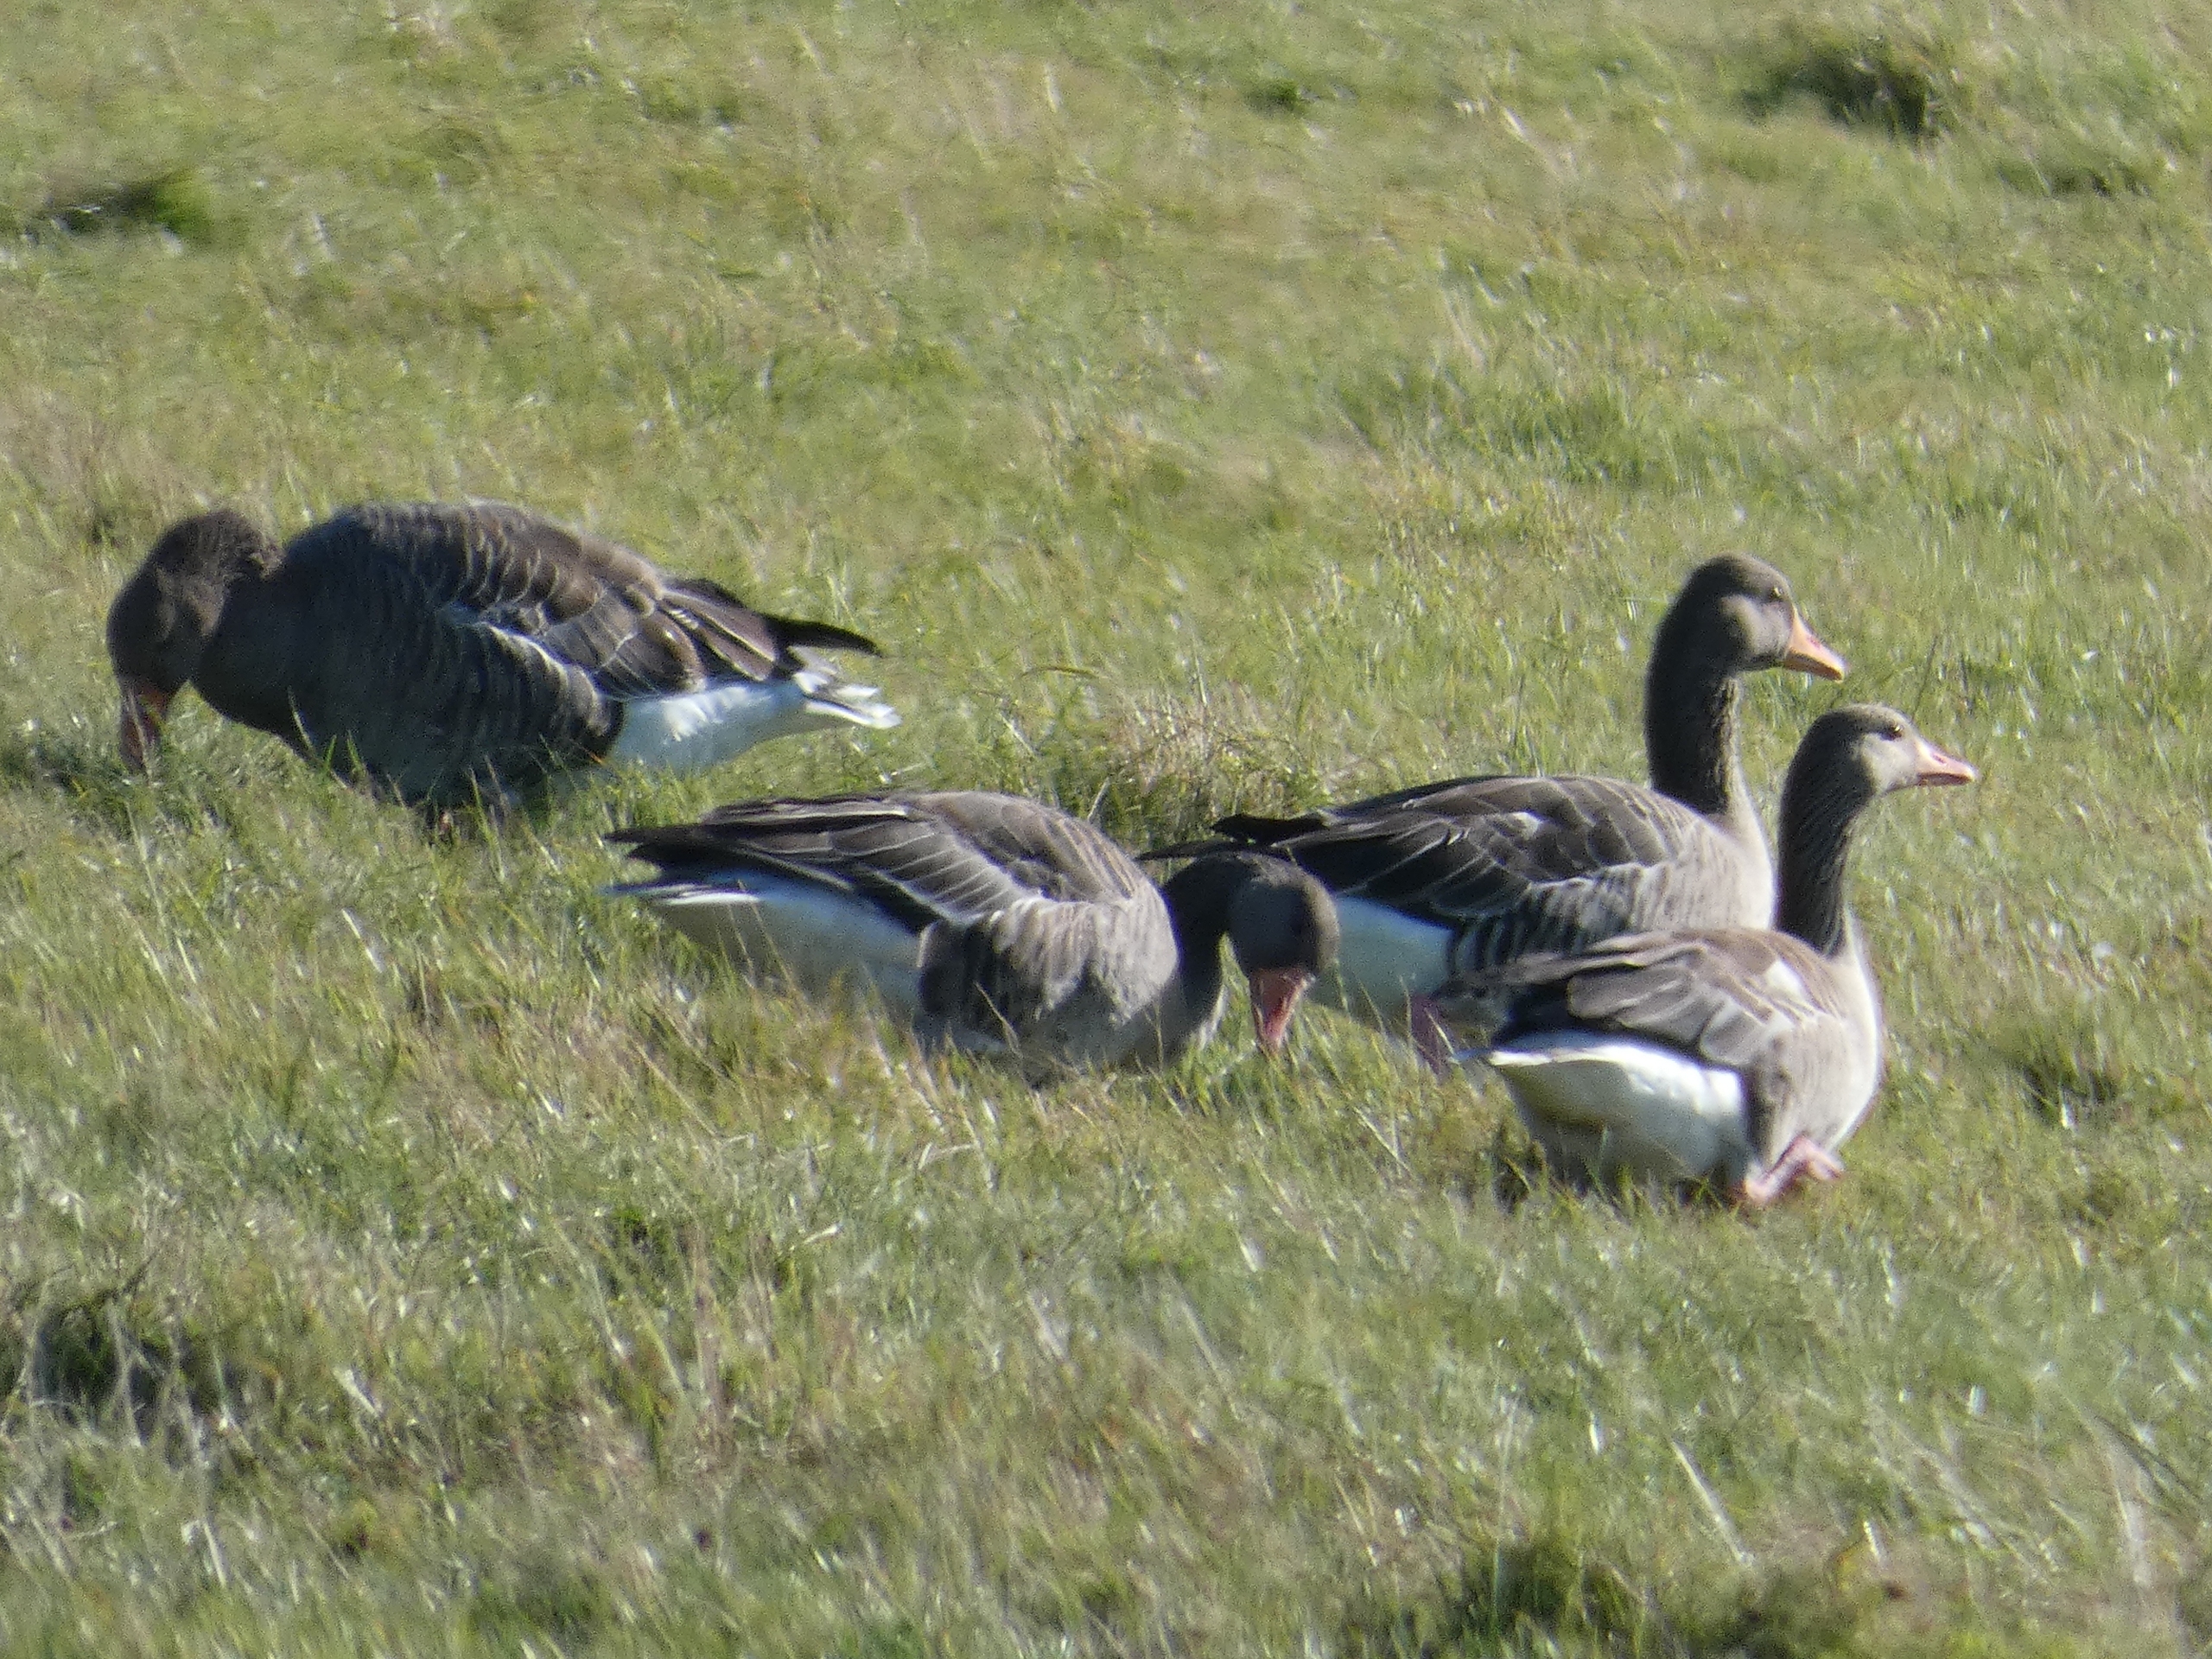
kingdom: Animalia
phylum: Chordata
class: Aves
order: Anseriformes
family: Anatidae
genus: Anser
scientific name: Anser anser
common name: Grågås
